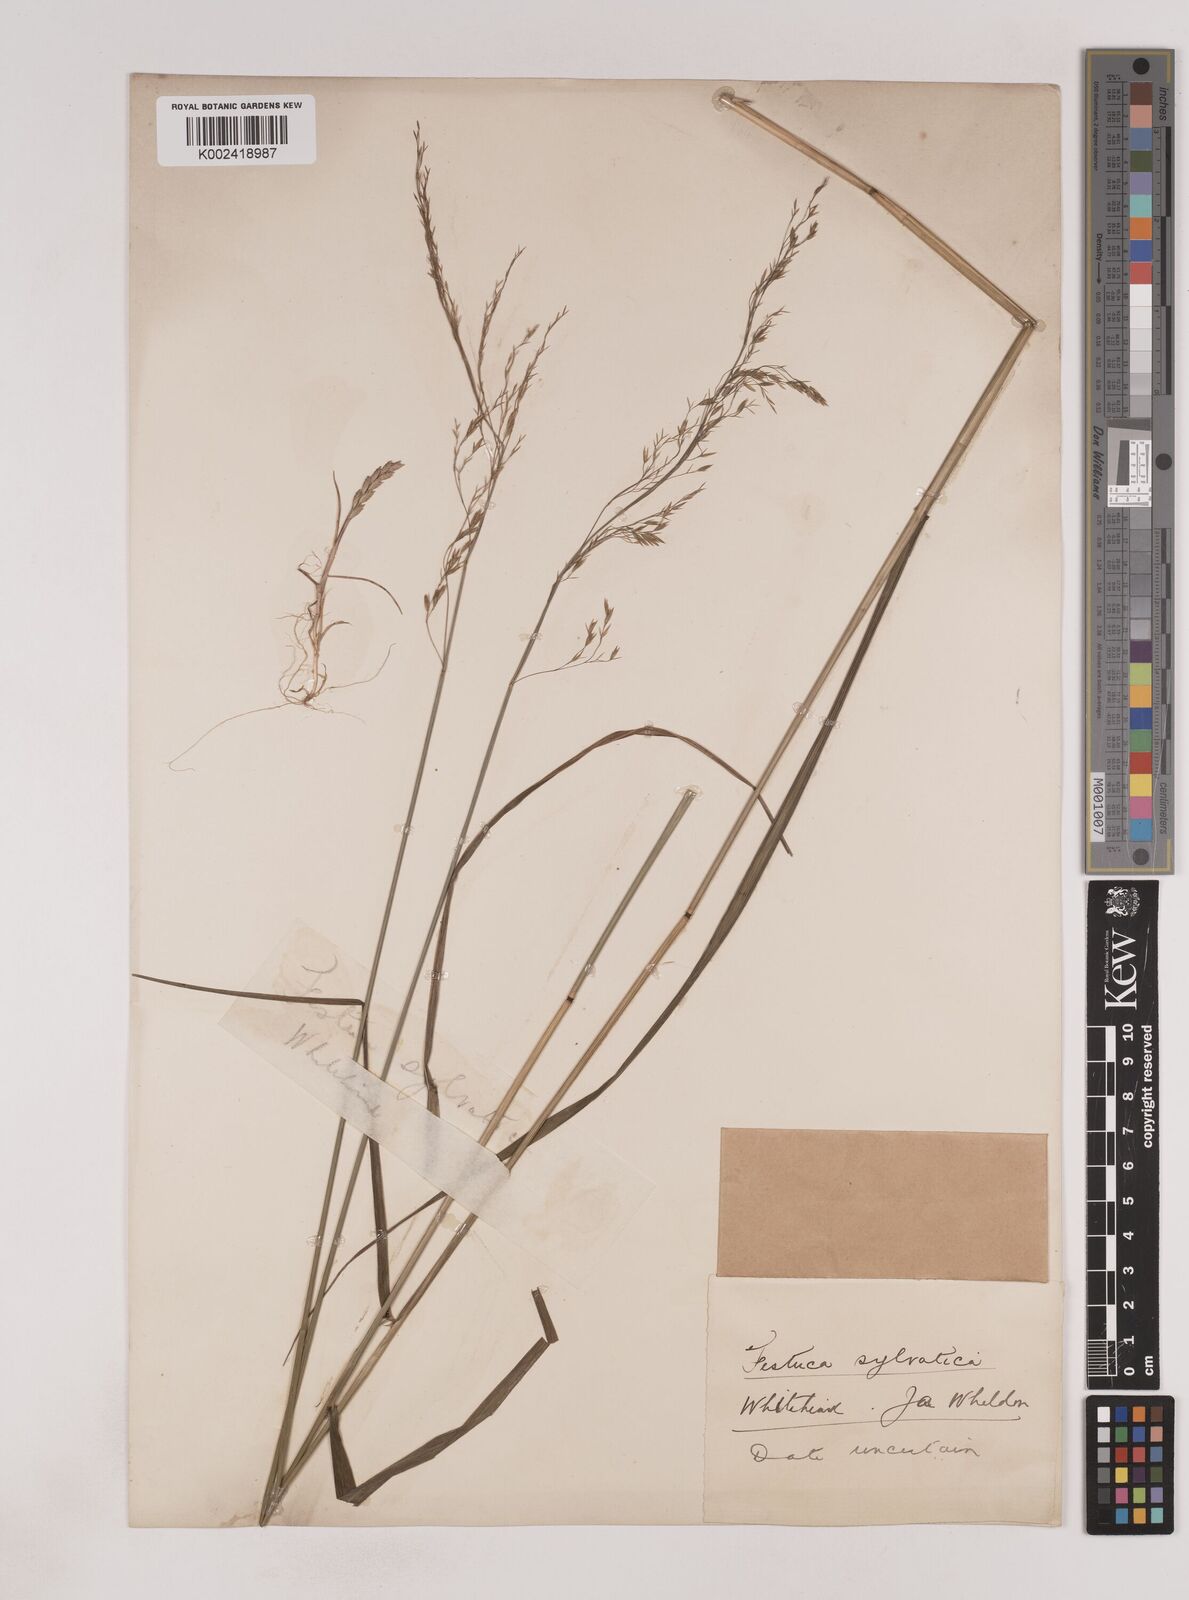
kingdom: Plantae
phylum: Tracheophyta
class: Liliopsida
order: Poales
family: Poaceae
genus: Festuca
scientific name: Festuca drymeja
